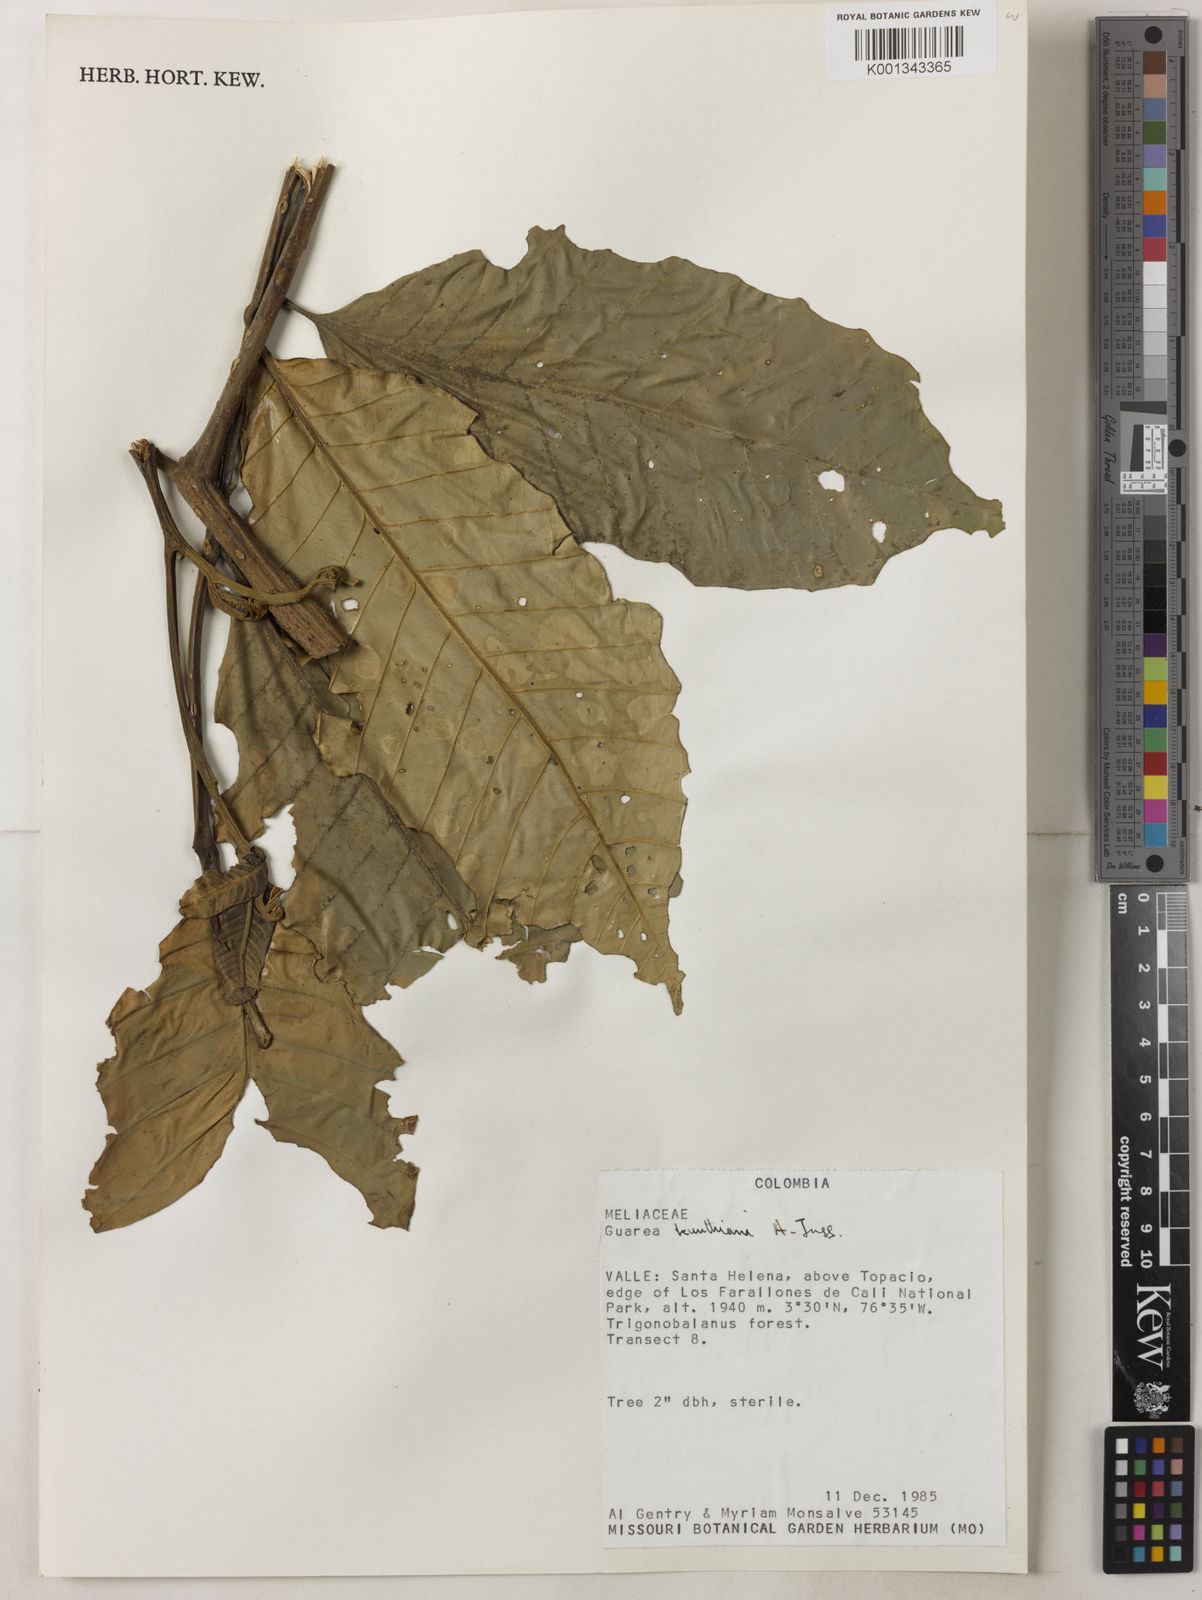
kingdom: Plantae
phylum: Tracheophyta
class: Magnoliopsida
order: Sapindales
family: Meliaceae
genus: Guarea
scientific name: Guarea kunthiana
